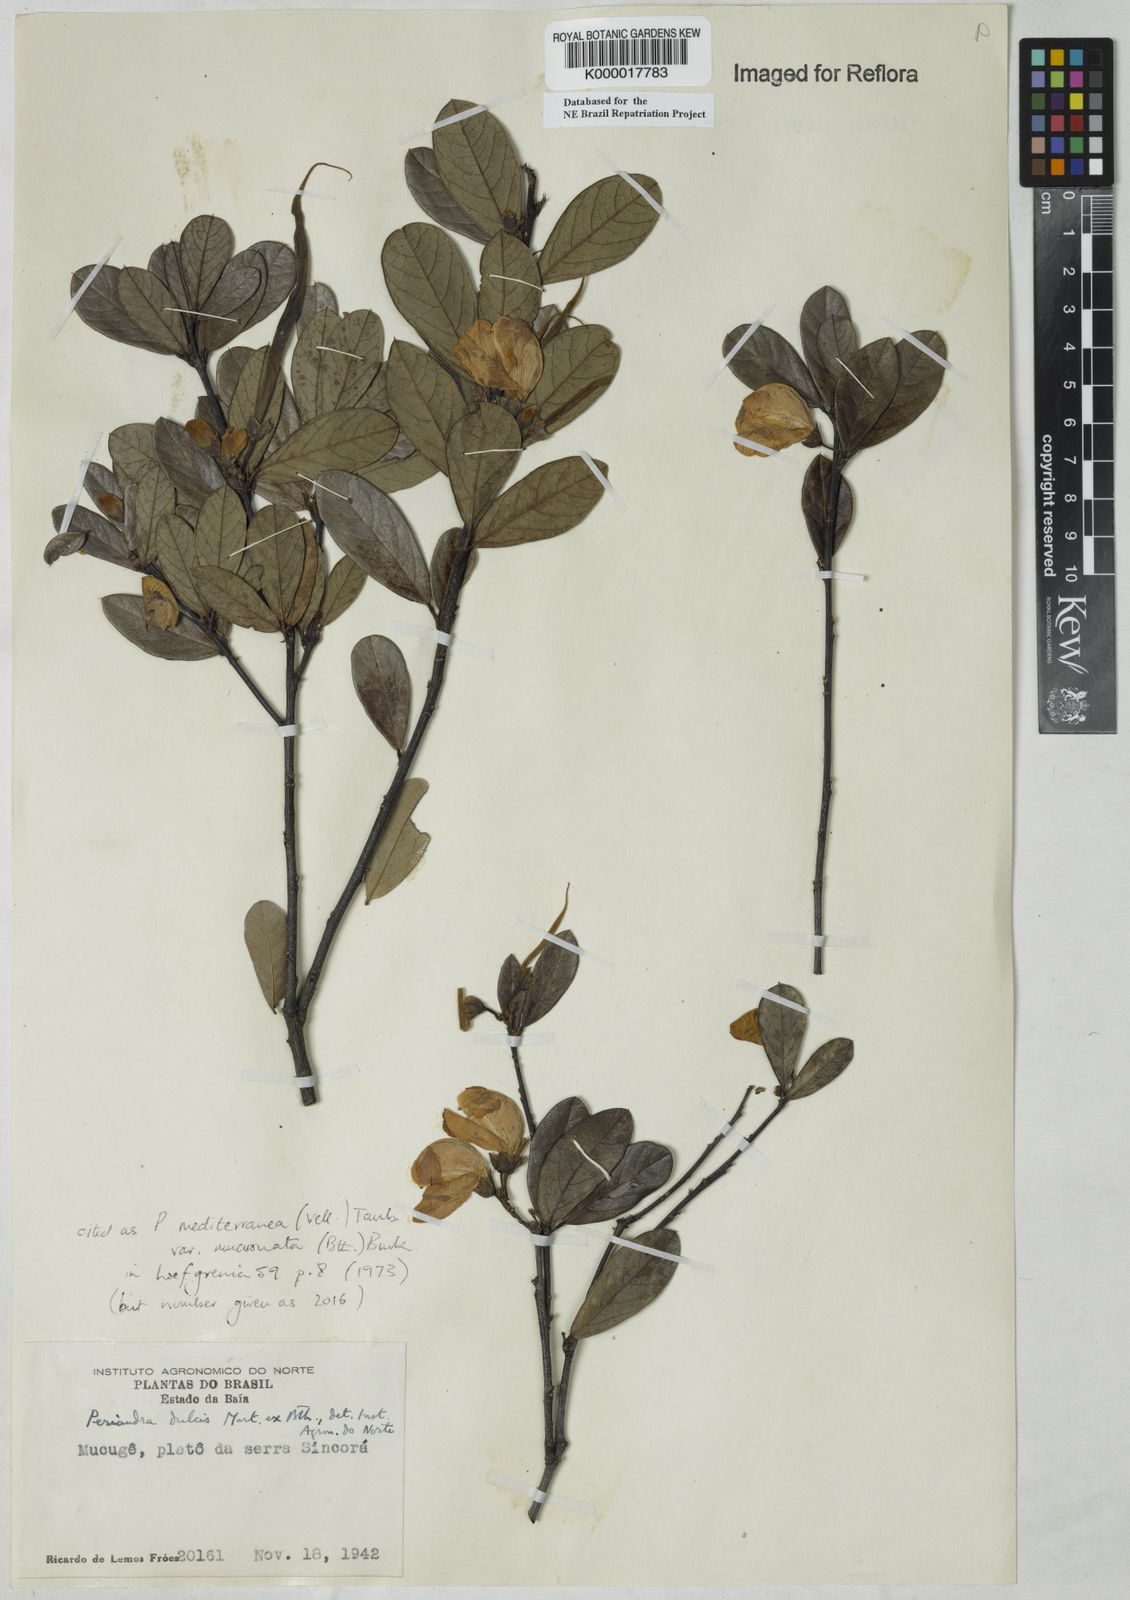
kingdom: Plantae
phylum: Tracheophyta
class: Magnoliopsida
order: Fabales
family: Fabaceae
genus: Periandra
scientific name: Periandra mediterranea
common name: Brazilian licorice
